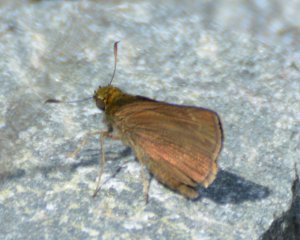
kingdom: Animalia
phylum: Arthropoda
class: Insecta
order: Lepidoptera
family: Hesperiidae
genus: Euphyes
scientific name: Euphyes vestris
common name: Dun Skipper
